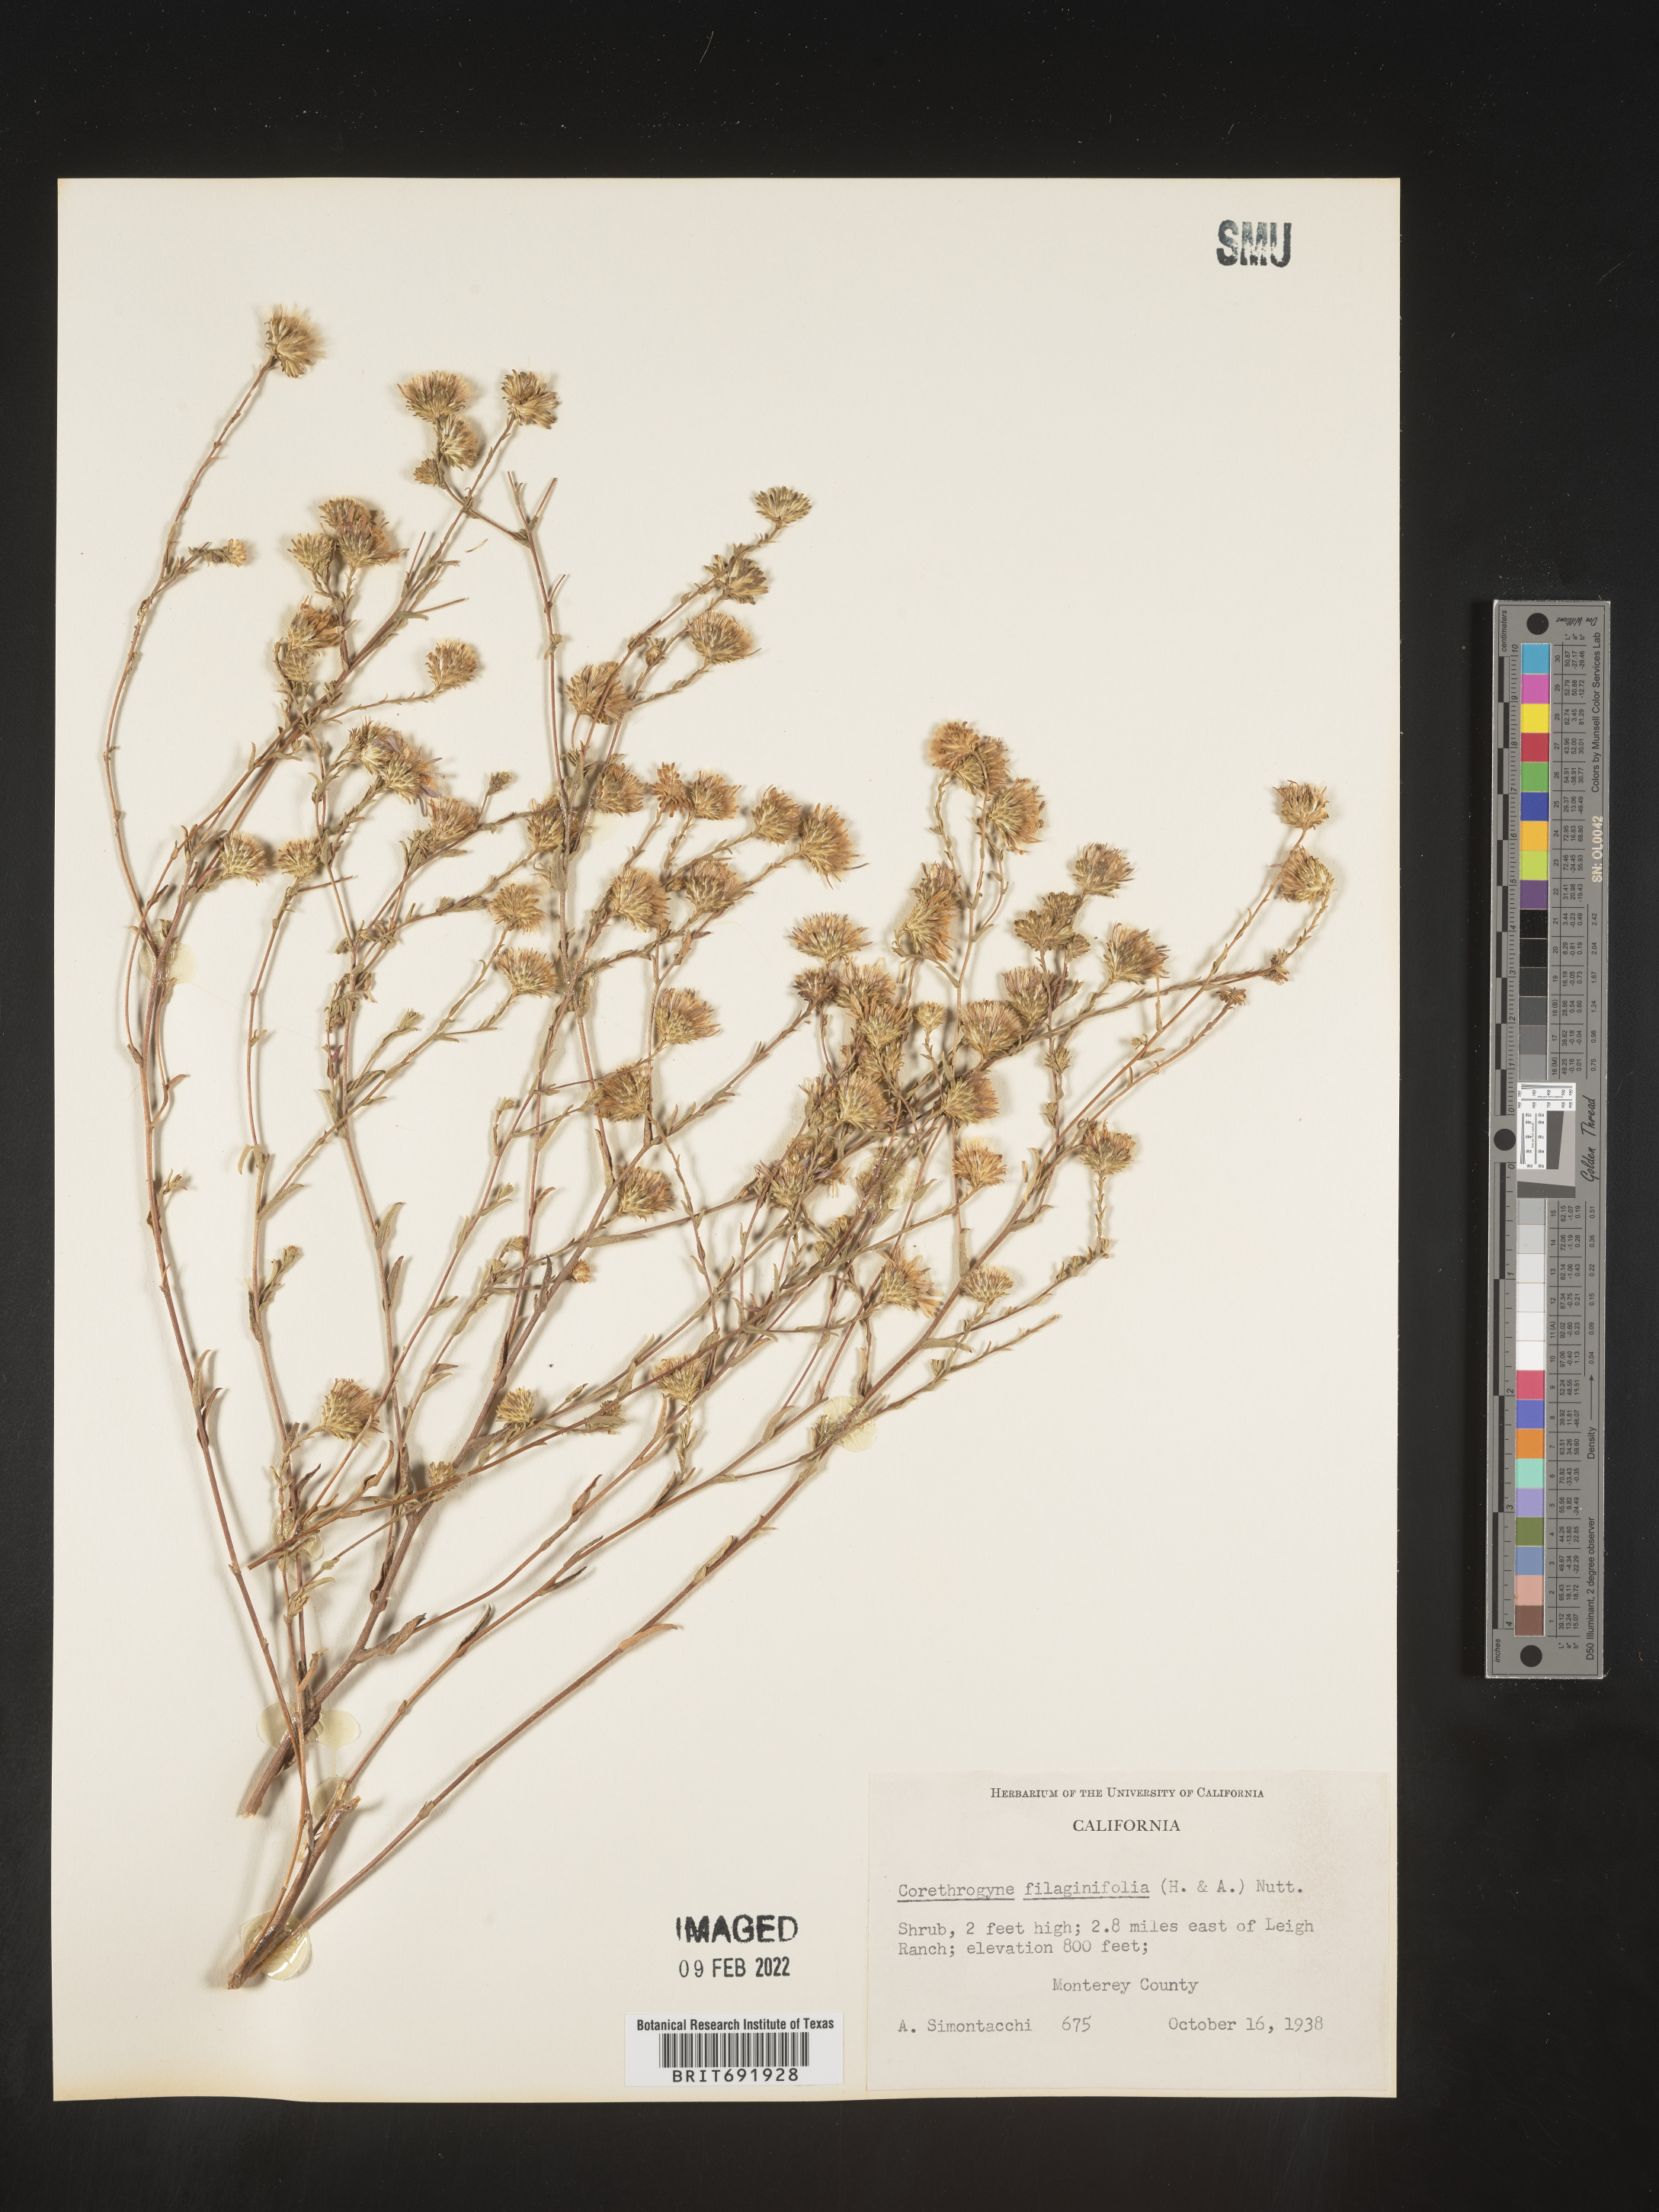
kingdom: Plantae
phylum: Tracheophyta
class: Magnoliopsida
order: Asterales
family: Asteraceae
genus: Corethrogyne
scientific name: Corethrogyne
